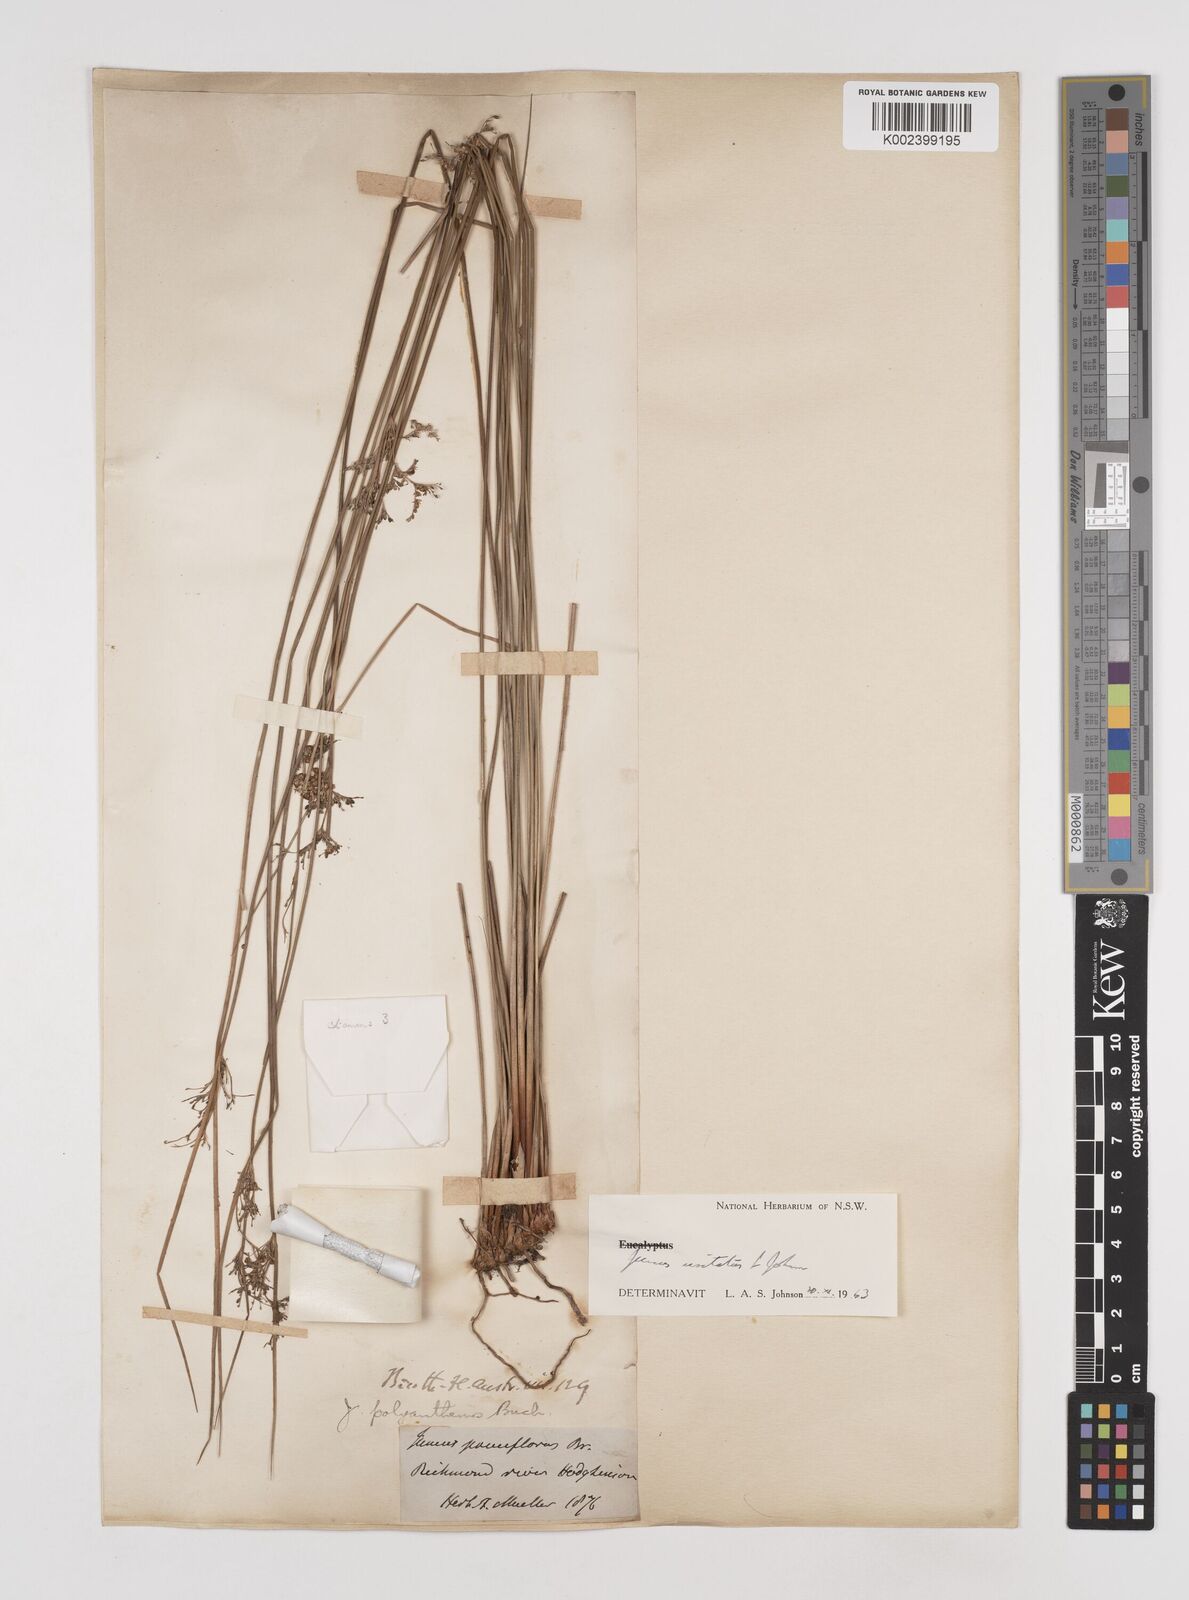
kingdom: Plantae
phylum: Tracheophyta
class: Liliopsida
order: Poales
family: Juncaceae
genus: Juncus
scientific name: Juncus usitatus
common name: Rush
